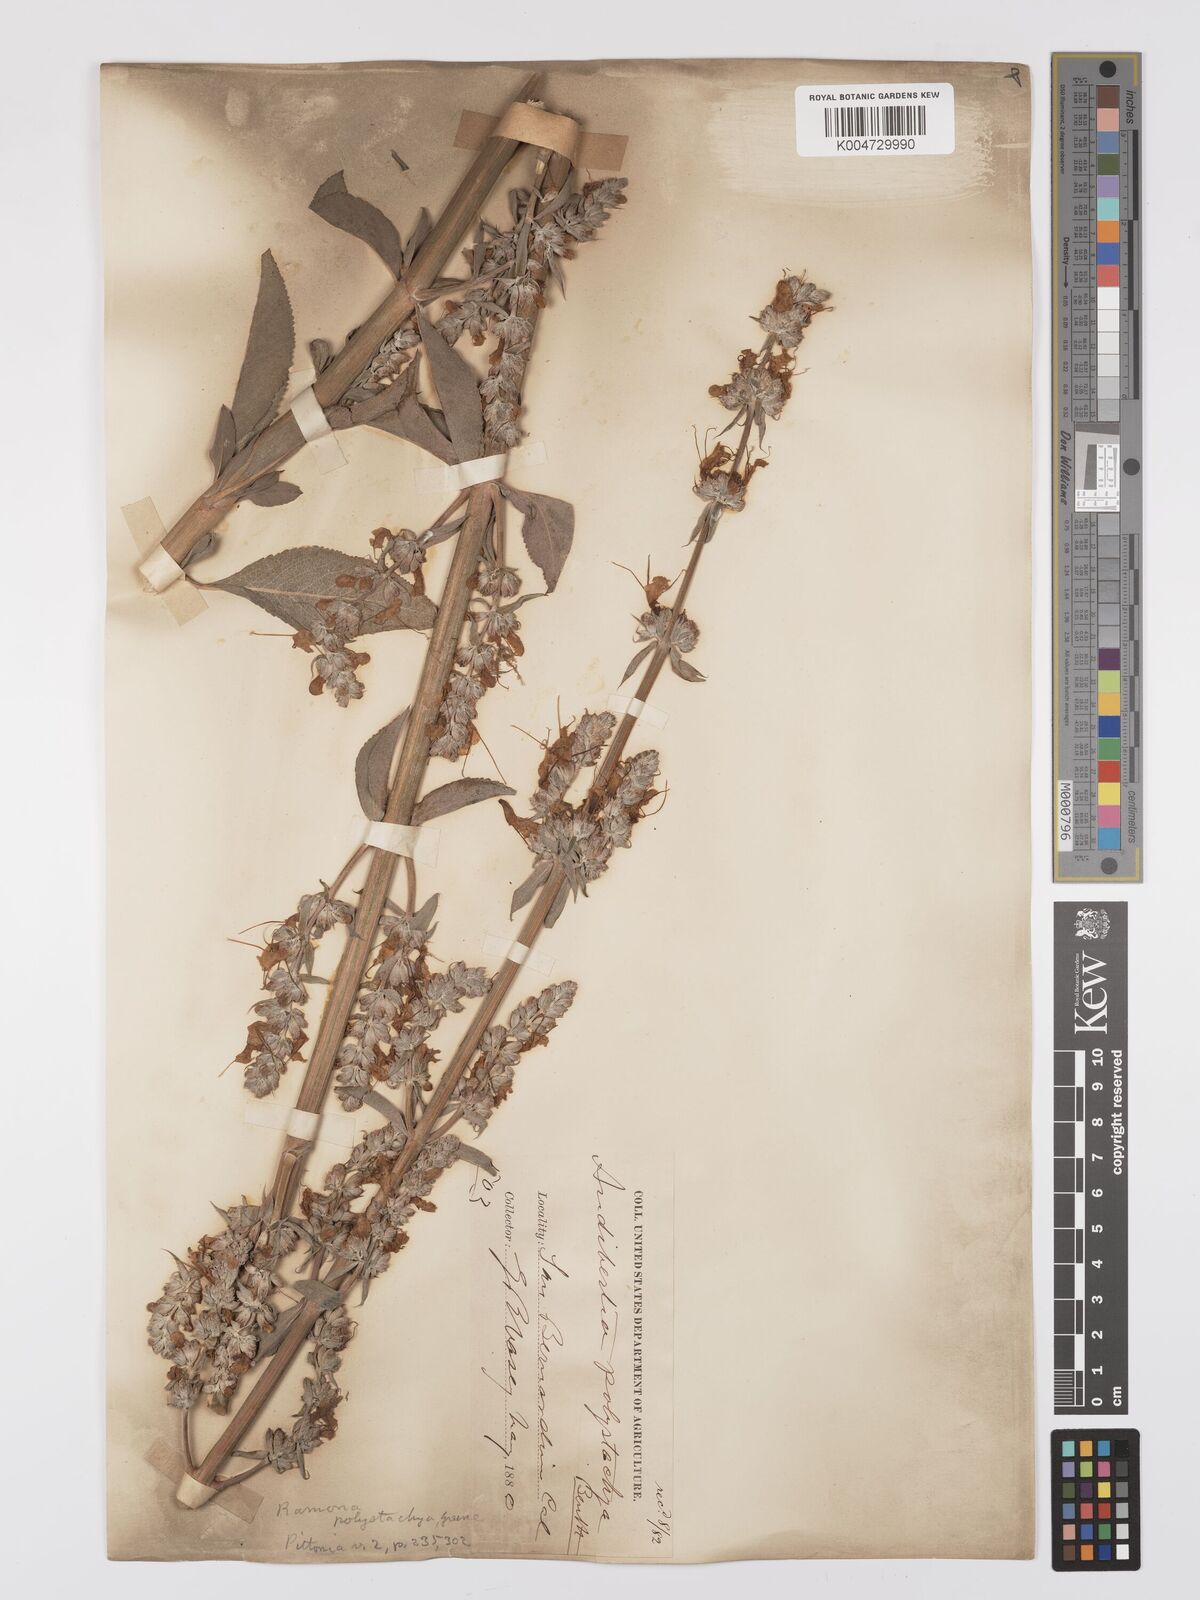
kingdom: Plantae
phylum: Tracheophyta
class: Magnoliopsida
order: Lamiales
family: Lamiaceae
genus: Salvia
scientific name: Salvia apiana
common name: White sage
